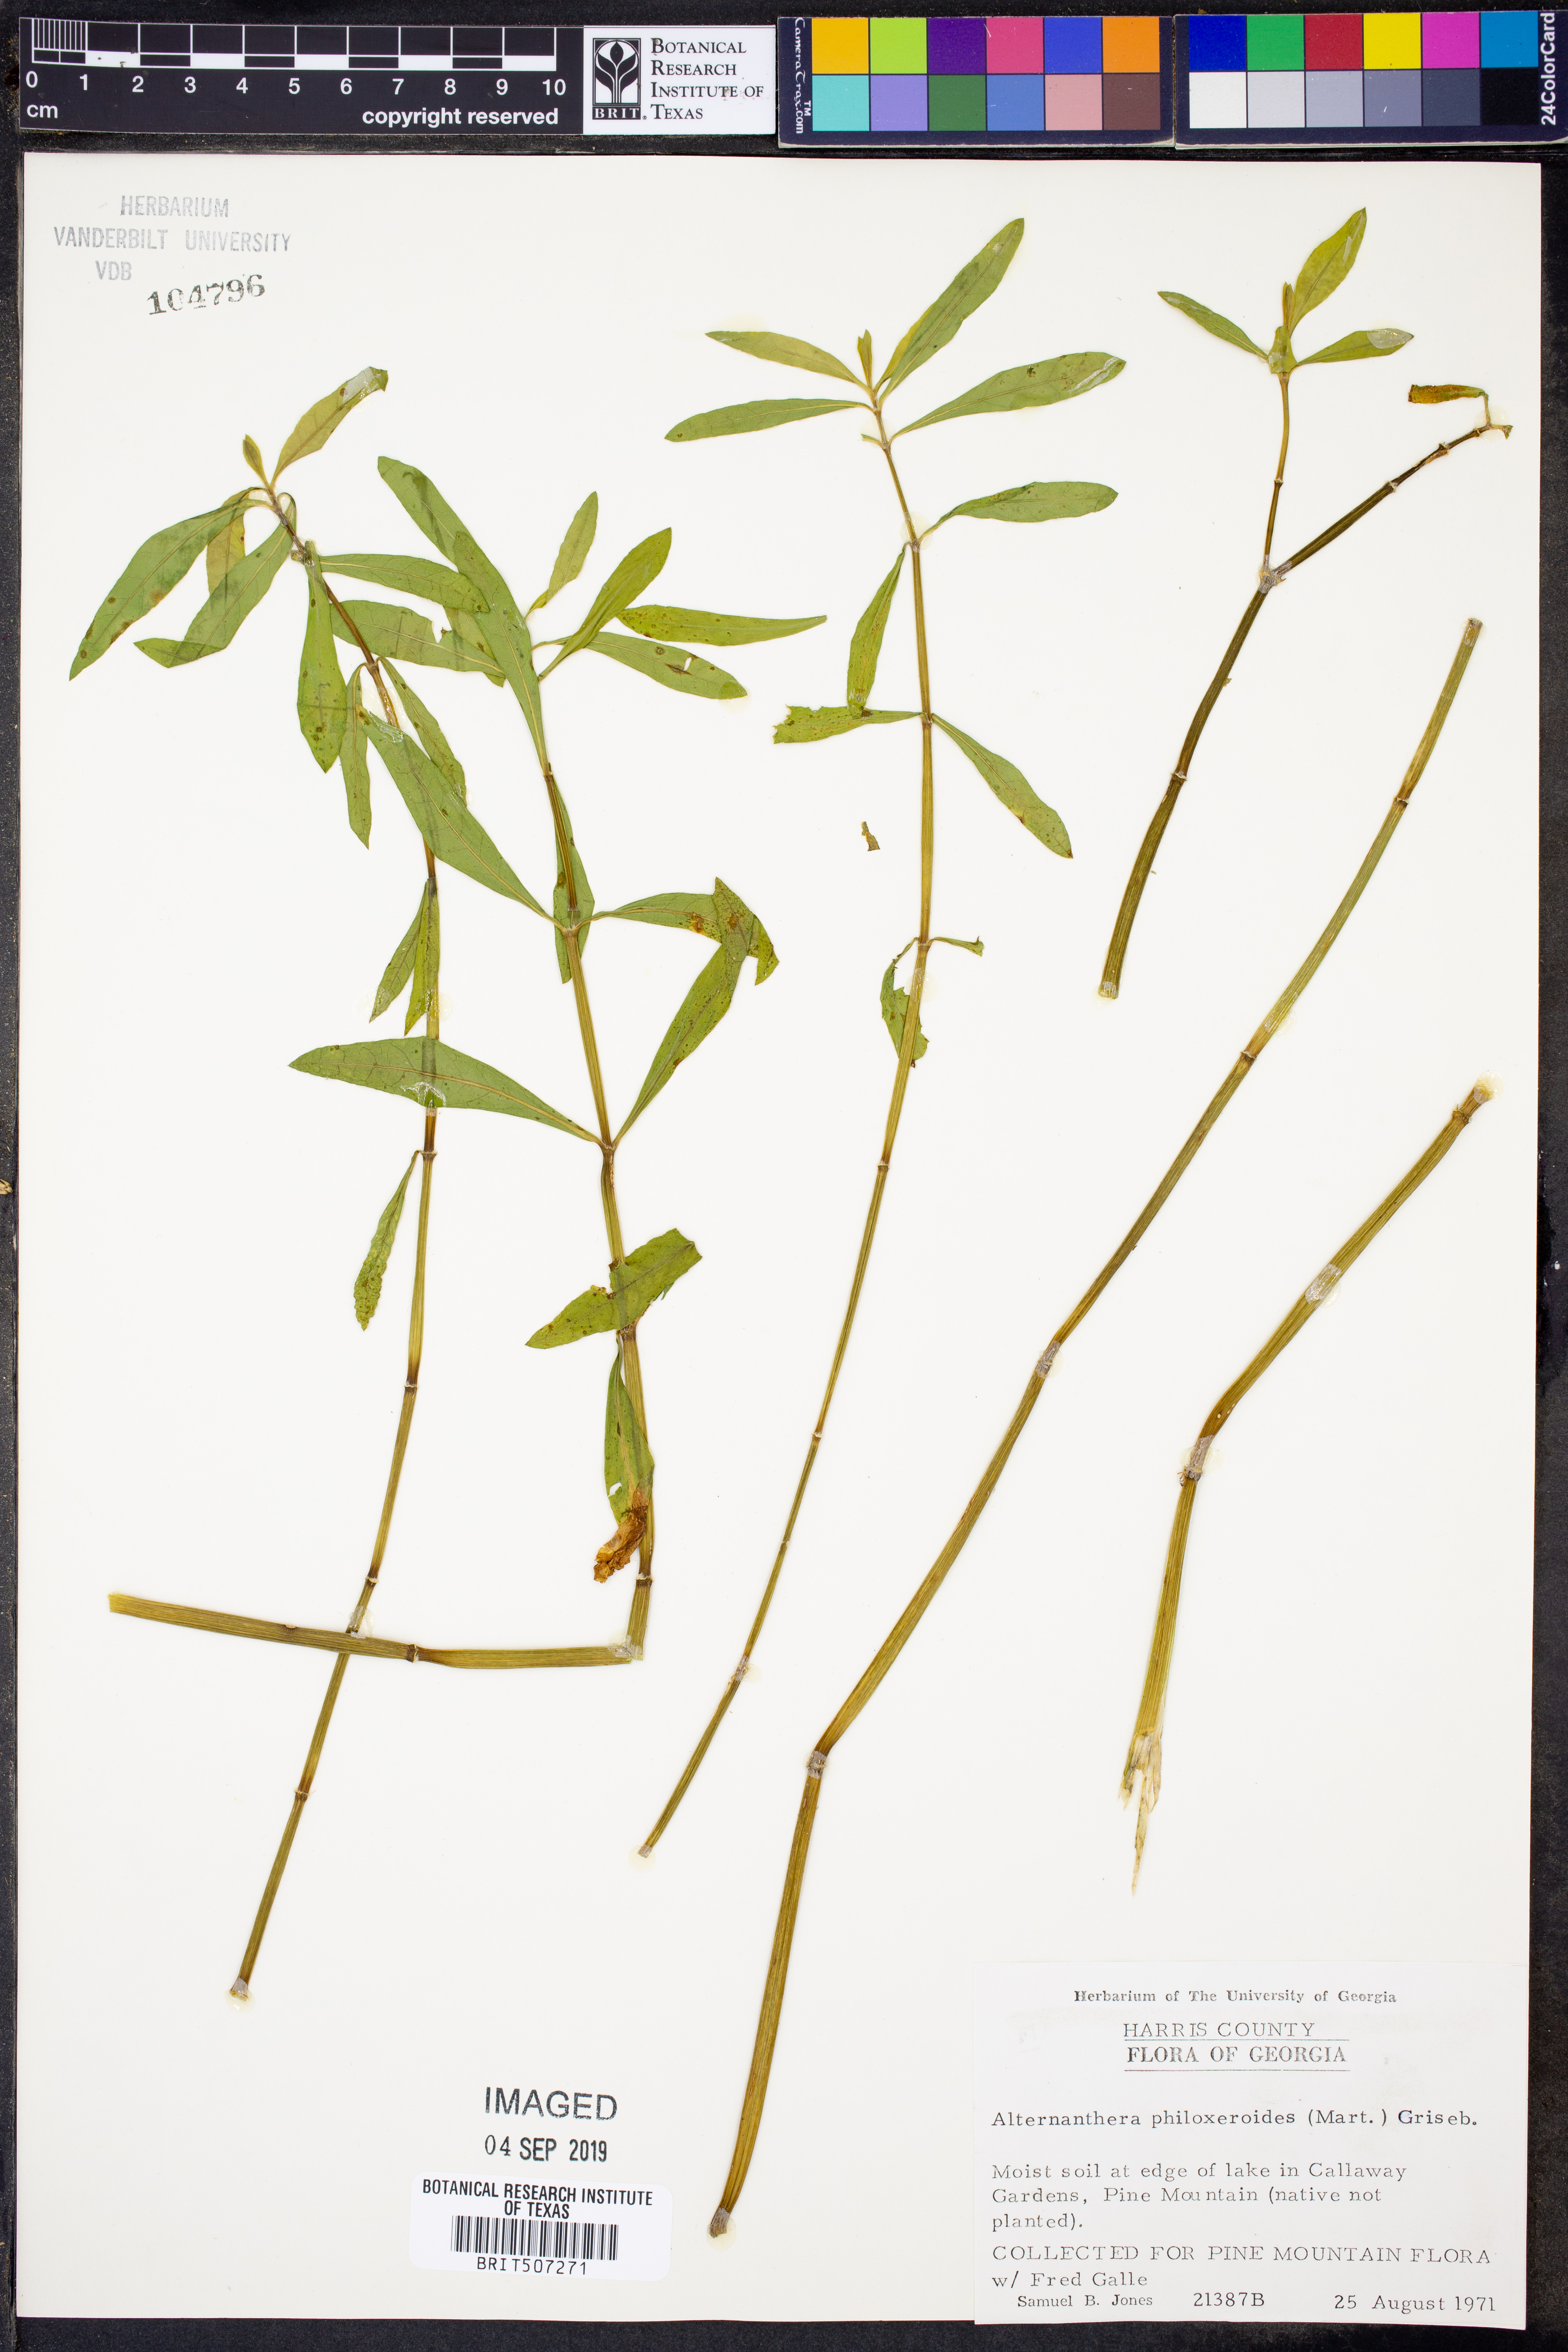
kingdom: Plantae
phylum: Tracheophyta
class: Magnoliopsida
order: Caryophyllales
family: Amaranthaceae
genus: Alternanthera
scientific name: Alternanthera philoxeroides
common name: Alligatorweed
